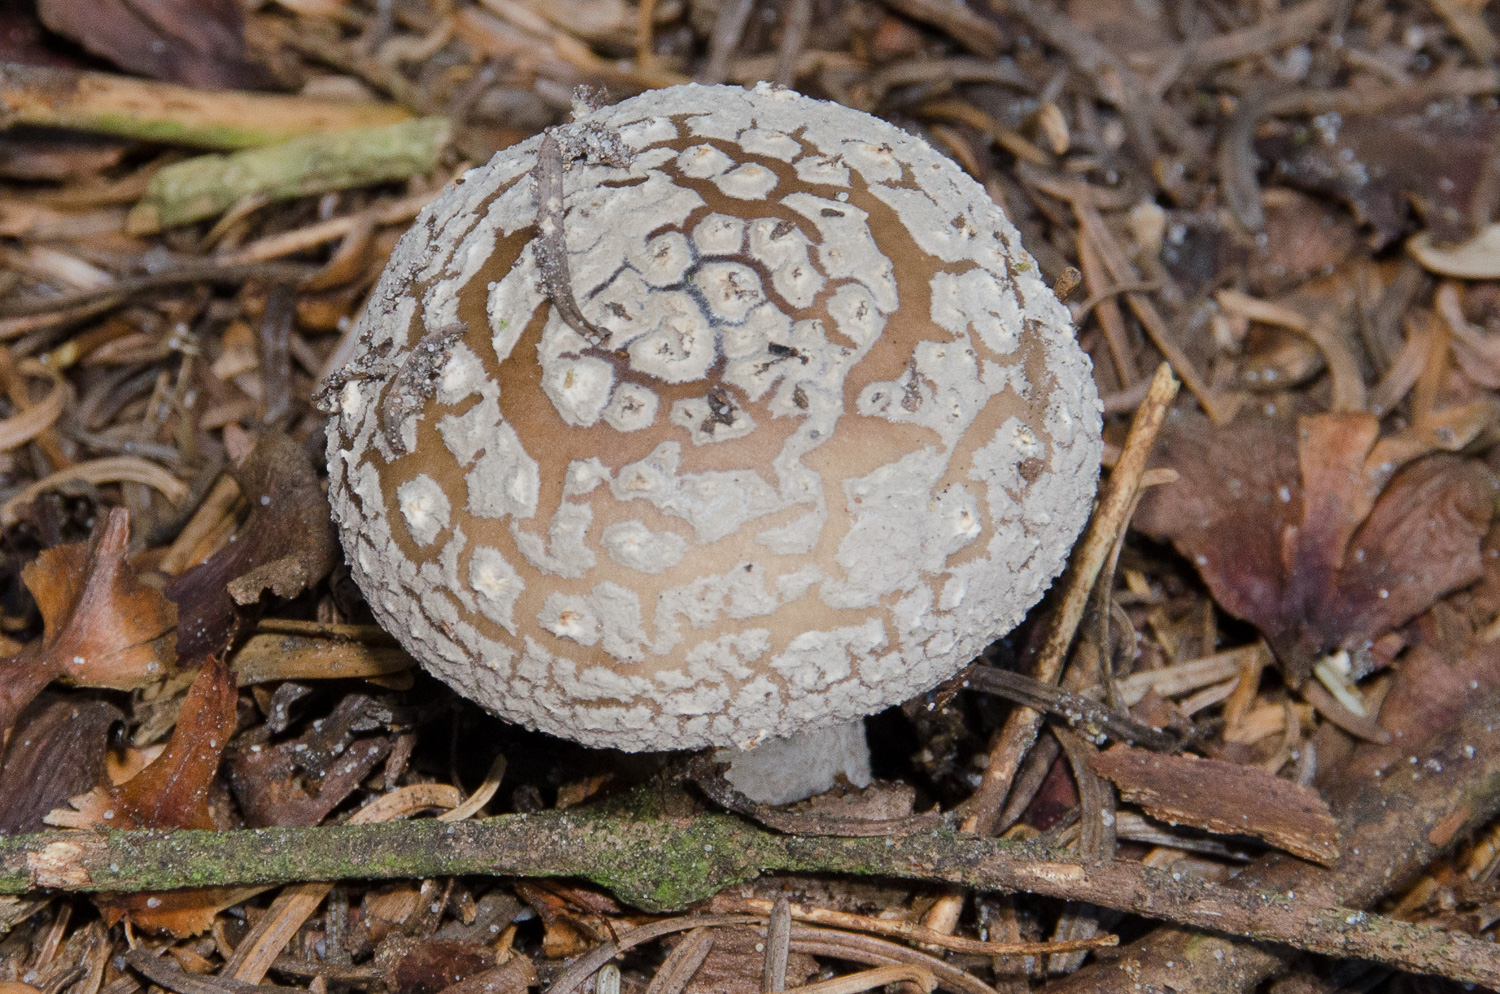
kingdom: Fungi
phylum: Basidiomycota
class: Agaricomycetes
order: Agaricales
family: Amanitaceae
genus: Amanita
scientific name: Amanita
